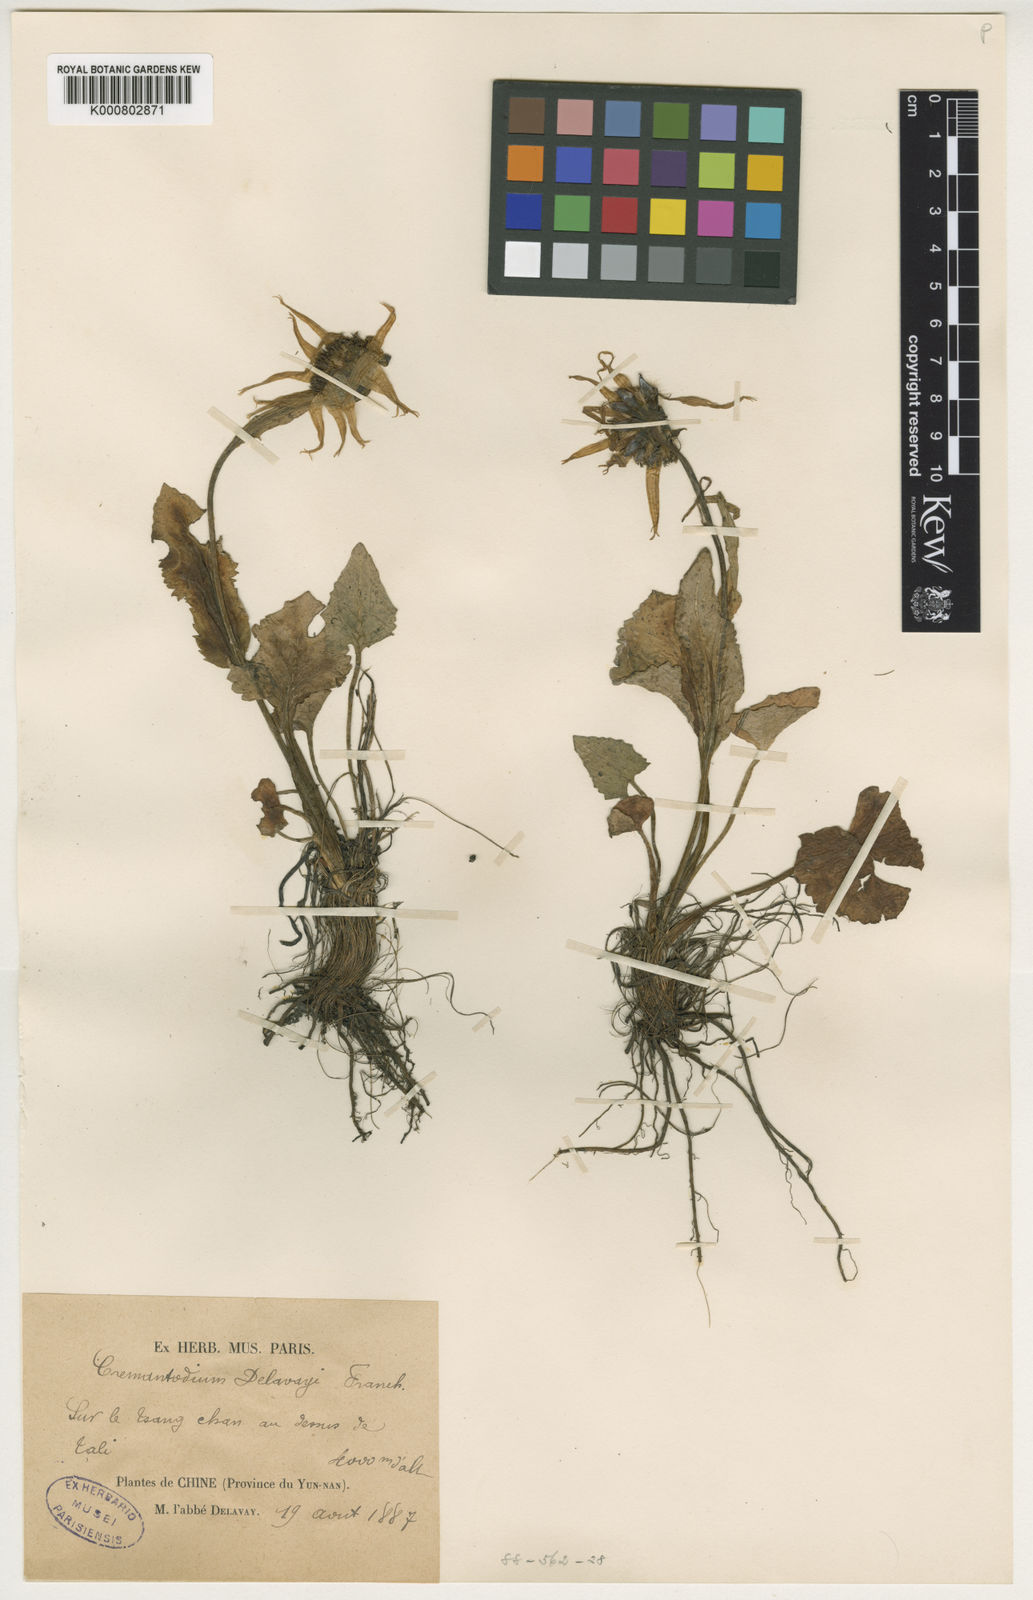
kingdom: Plantae
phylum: Tracheophyta
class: Magnoliopsida
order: Asterales
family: Asteraceae
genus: Cremanthodium
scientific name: Cremanthodium
